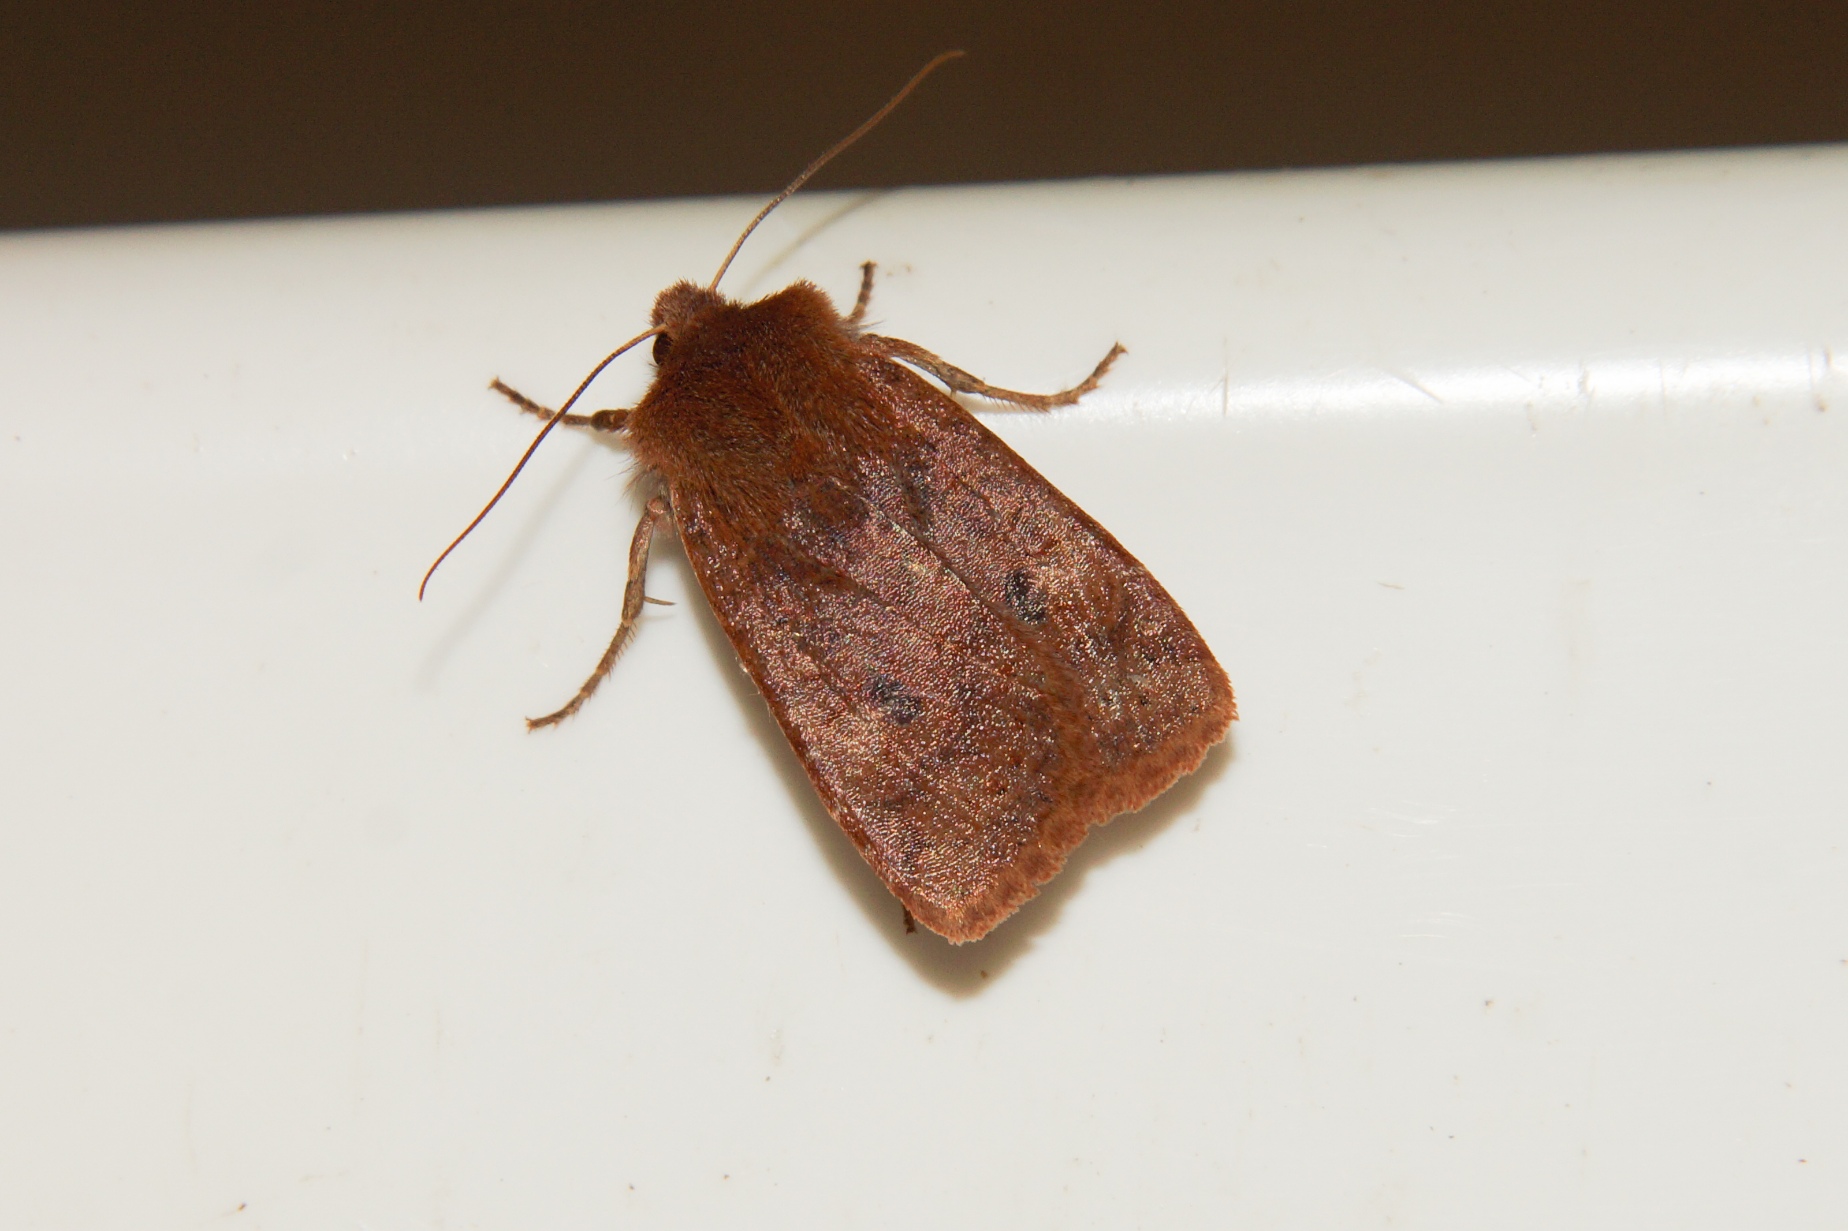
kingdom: Animalia
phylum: Arthropoda
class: Insecta
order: Lepidoptera
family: Noctuidae
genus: Conistra
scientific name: Conistra vaccinii
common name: Blåbærugle
